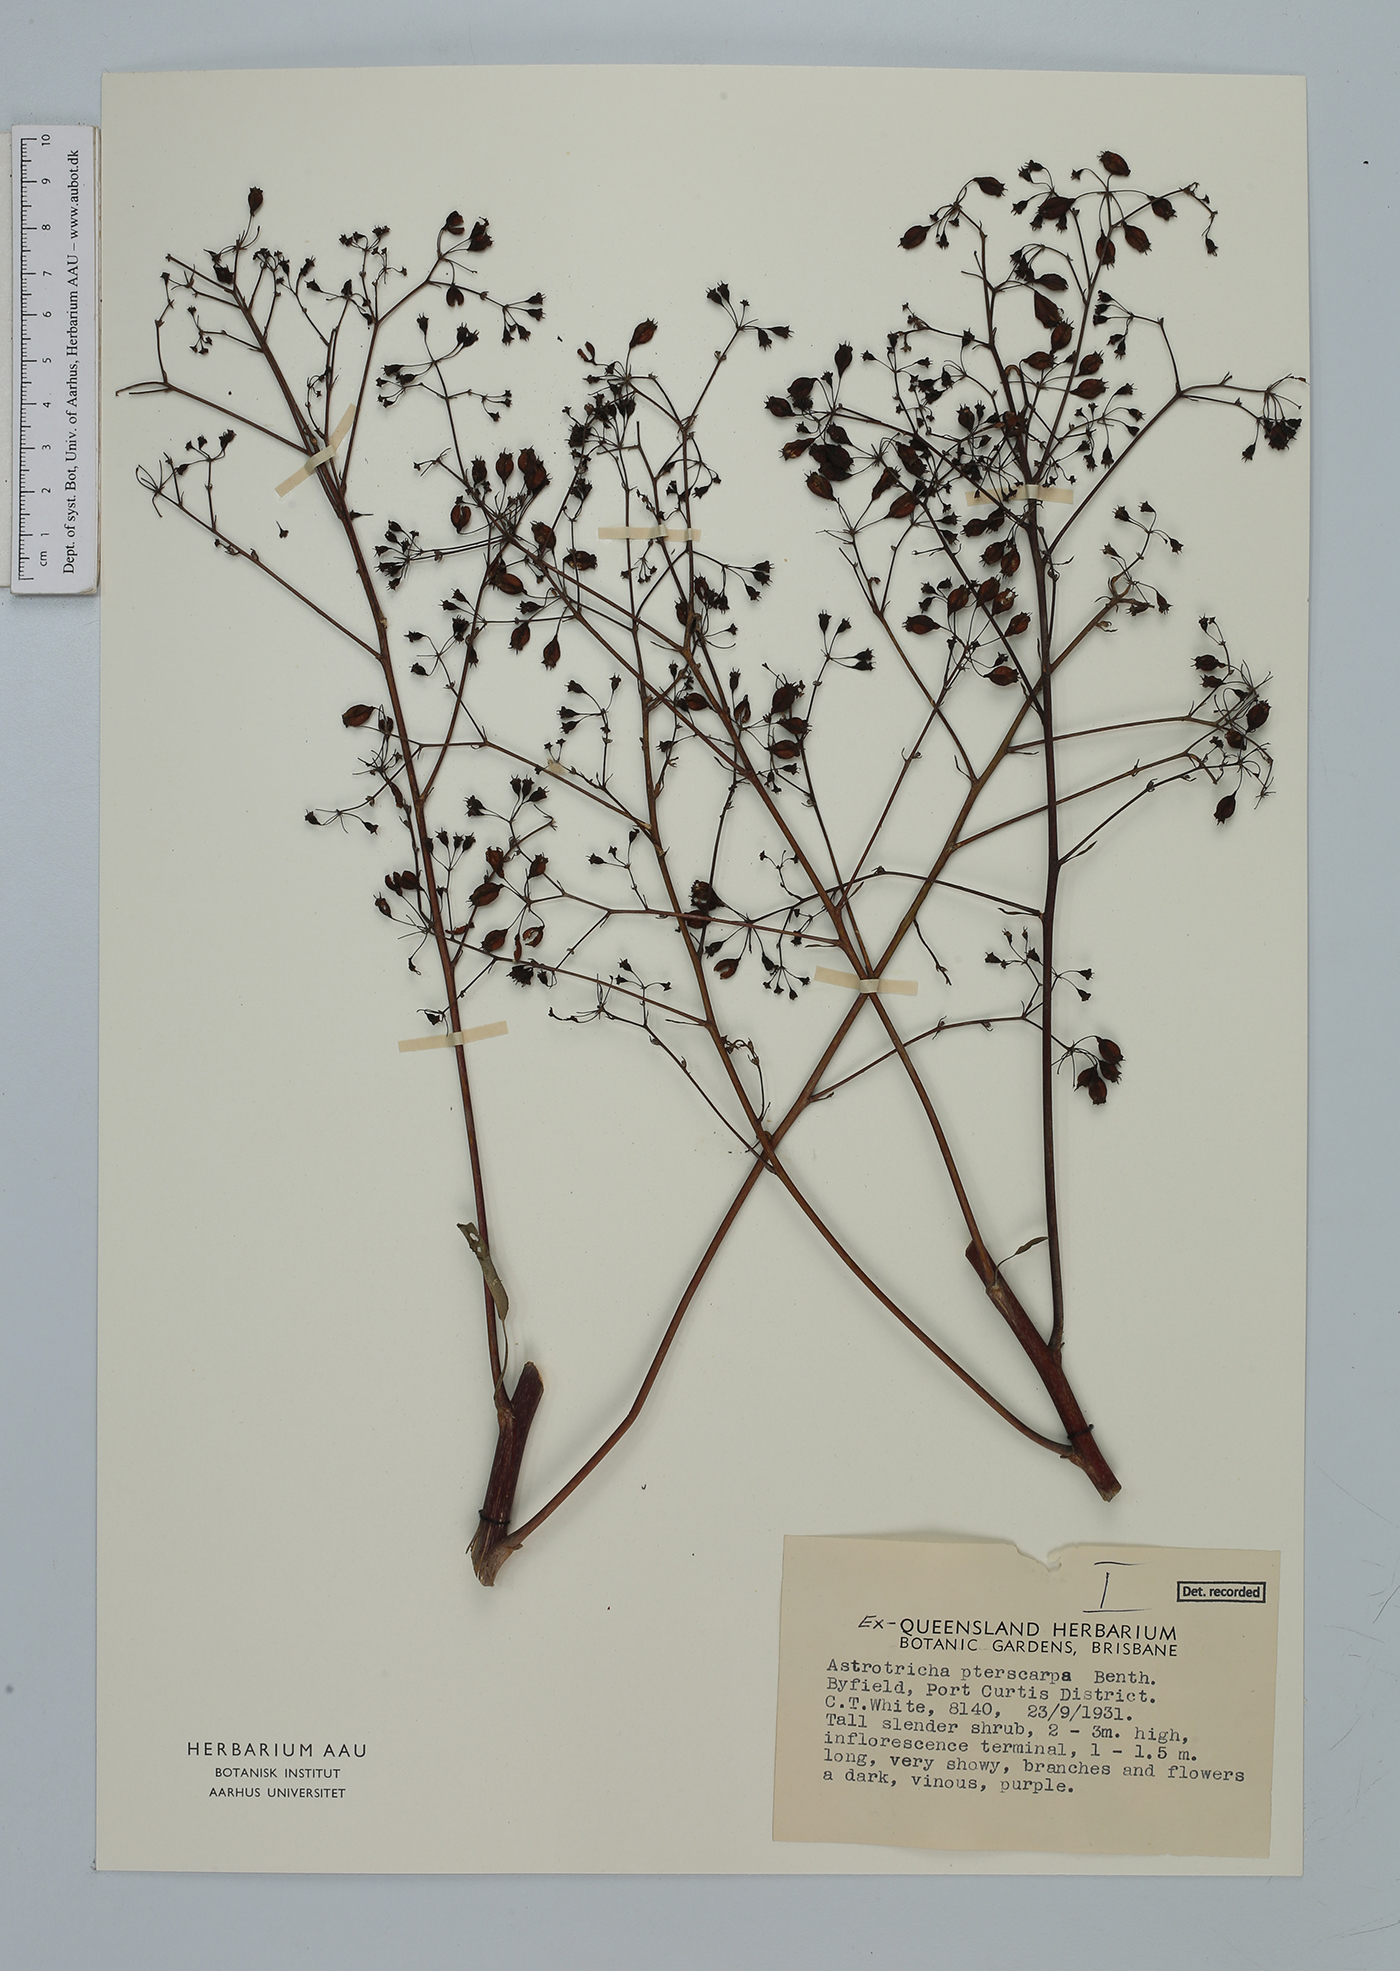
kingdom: Plantae
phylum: Tracheophyta
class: Magnoliopsida
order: Apiales
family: Araliaceae
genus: Astrotricha
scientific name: Astrotricha pterocarpa
